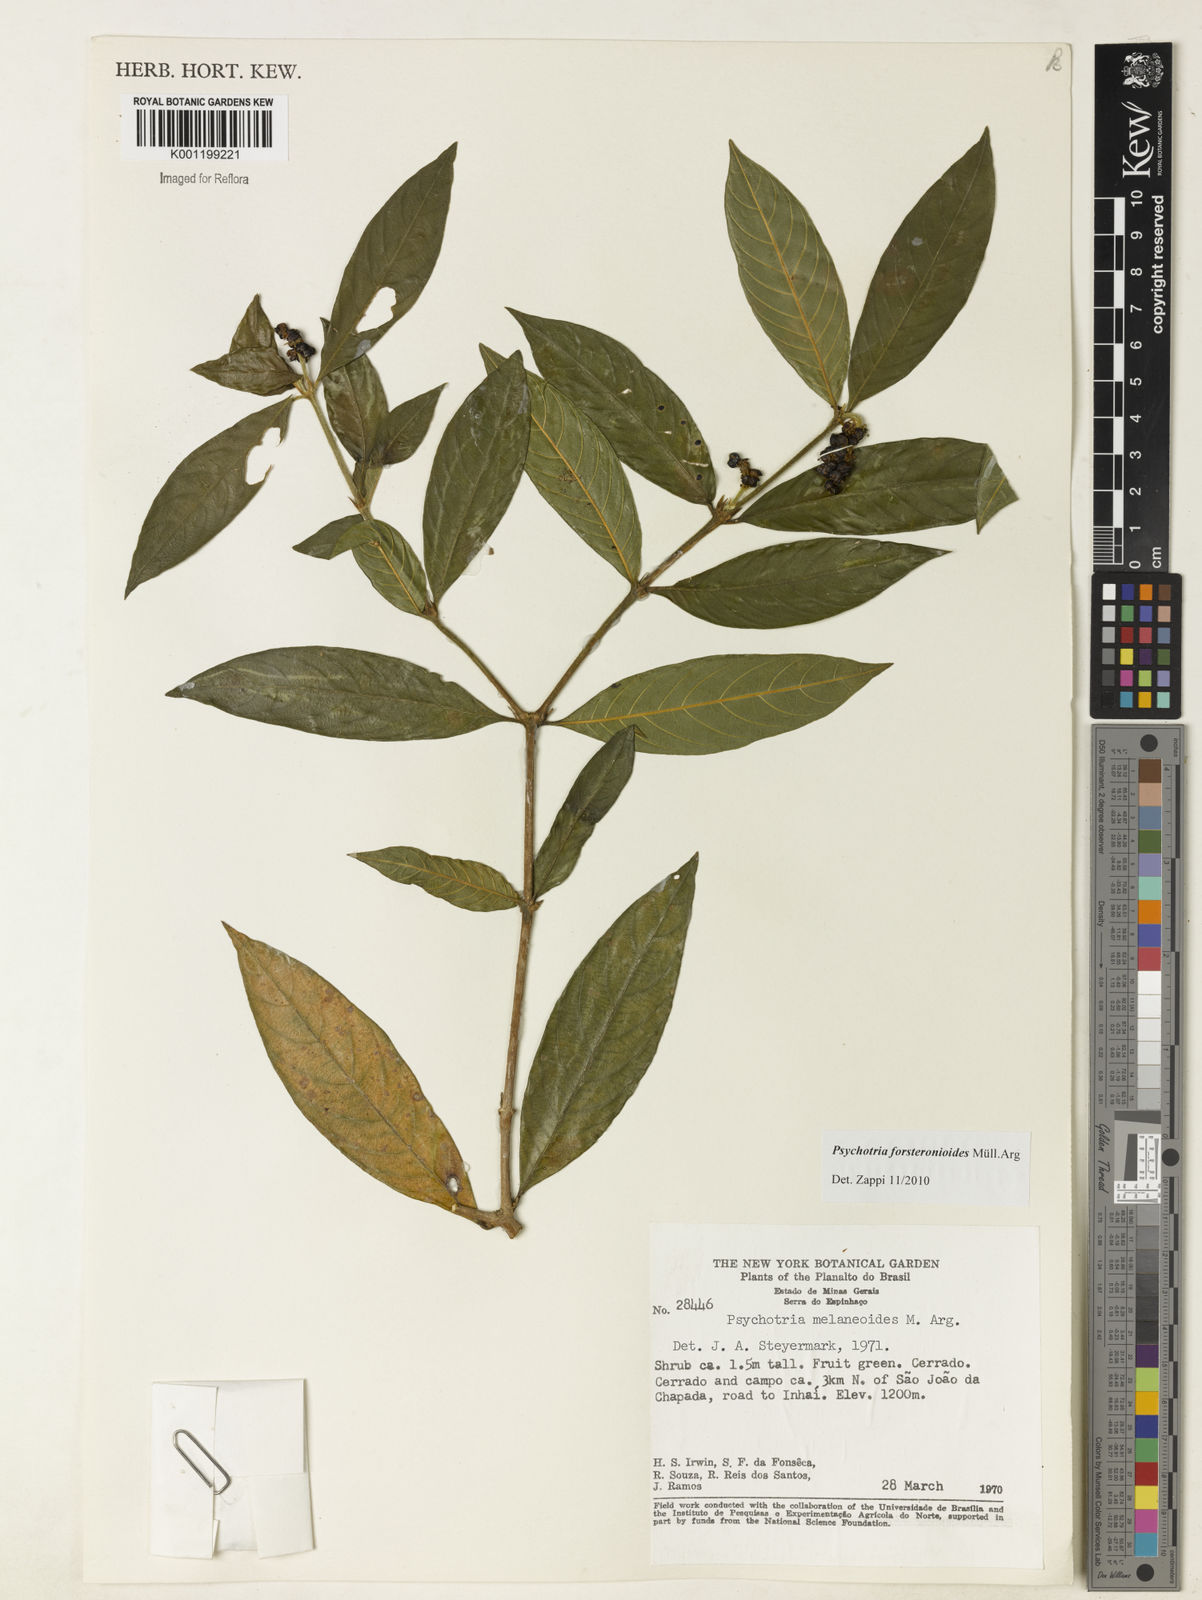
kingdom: Plantae
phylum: Tracheophyta
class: Magnoliopsida
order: Gentianales
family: Rubiaceae
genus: Psychotria
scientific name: Psychotria
